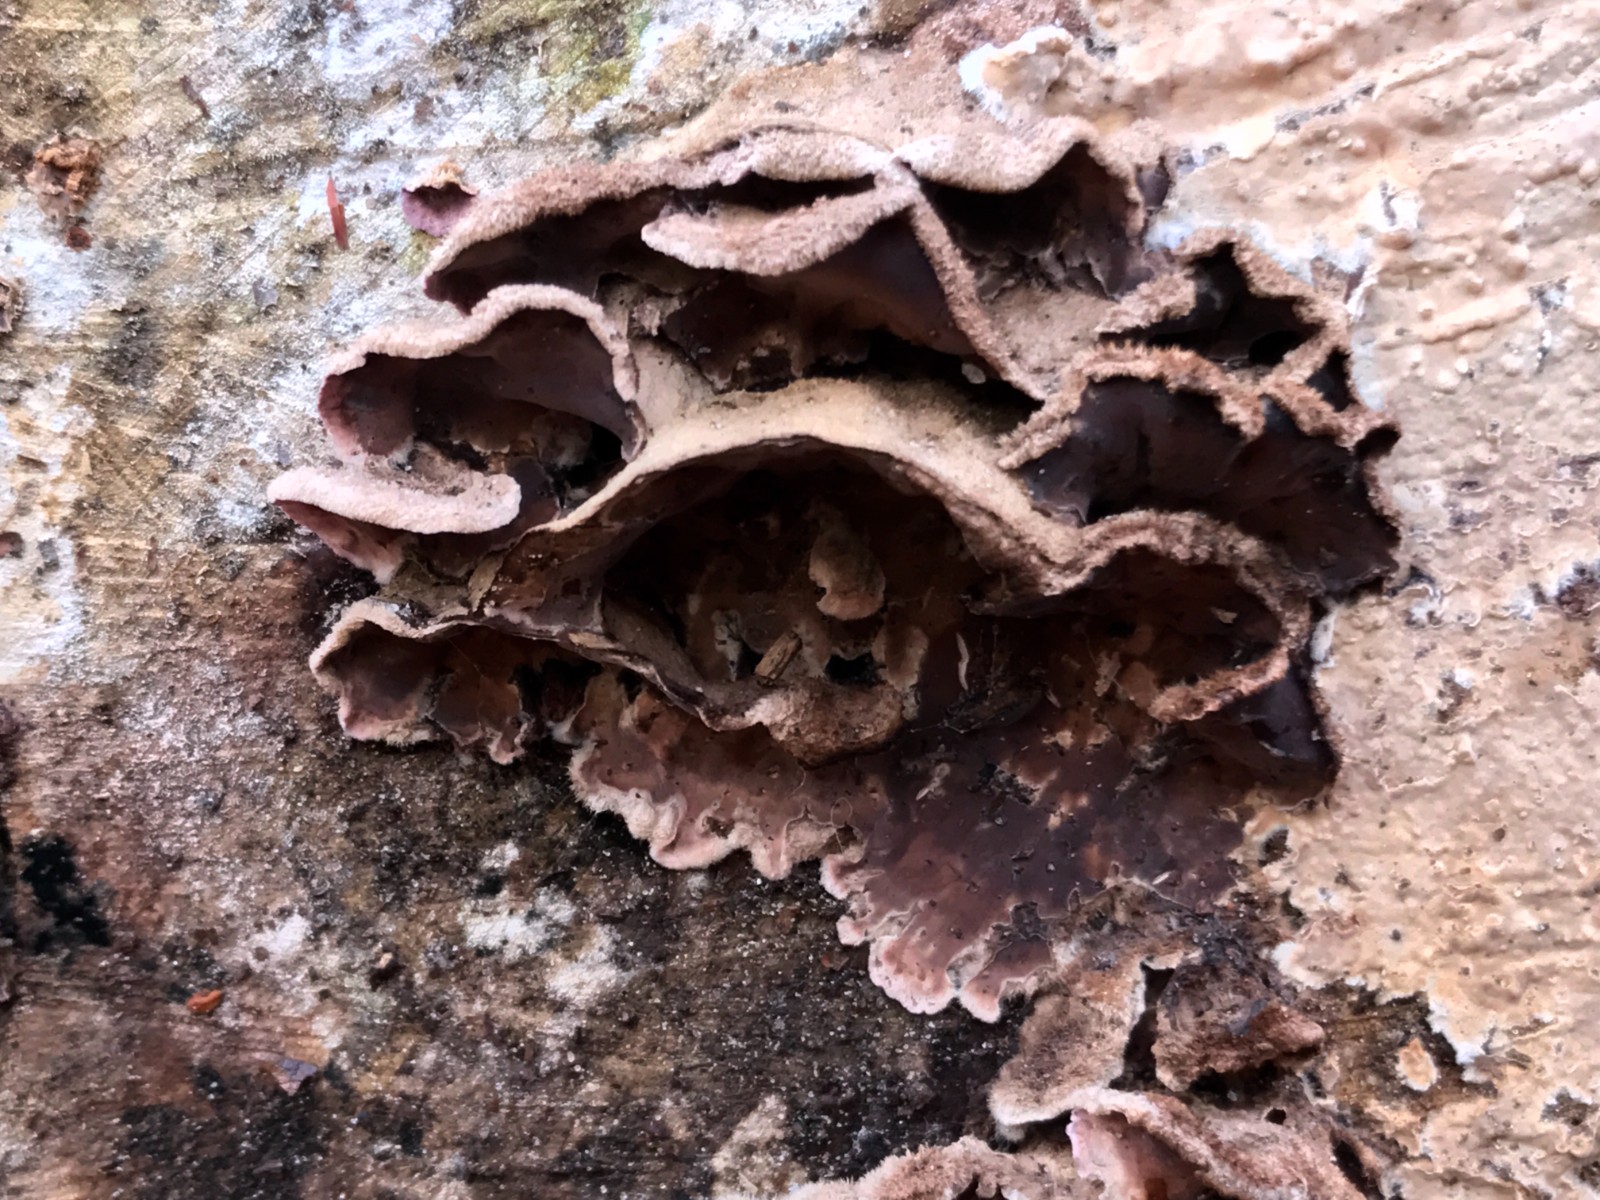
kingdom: Fungi
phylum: Basidiomycota
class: Agaricomycetes
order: Agaricales
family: Cyphellaceae
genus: Chondrostereum
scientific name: Chondrostereum purpureum
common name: purpurlædersvamp
